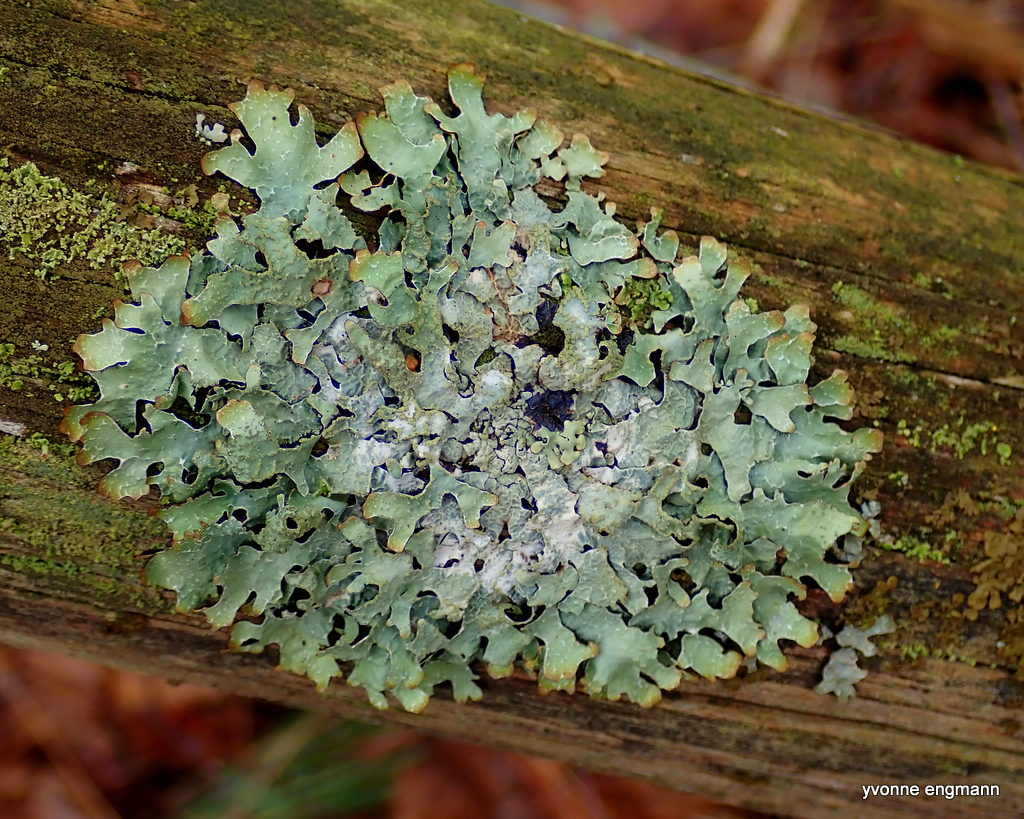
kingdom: Fungi
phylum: Ascomycota
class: Lecanoromycetes
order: Lecanorales
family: Parmeliaceae
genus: Parmelia
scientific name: Parmelia sulcata
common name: rynket skållav
